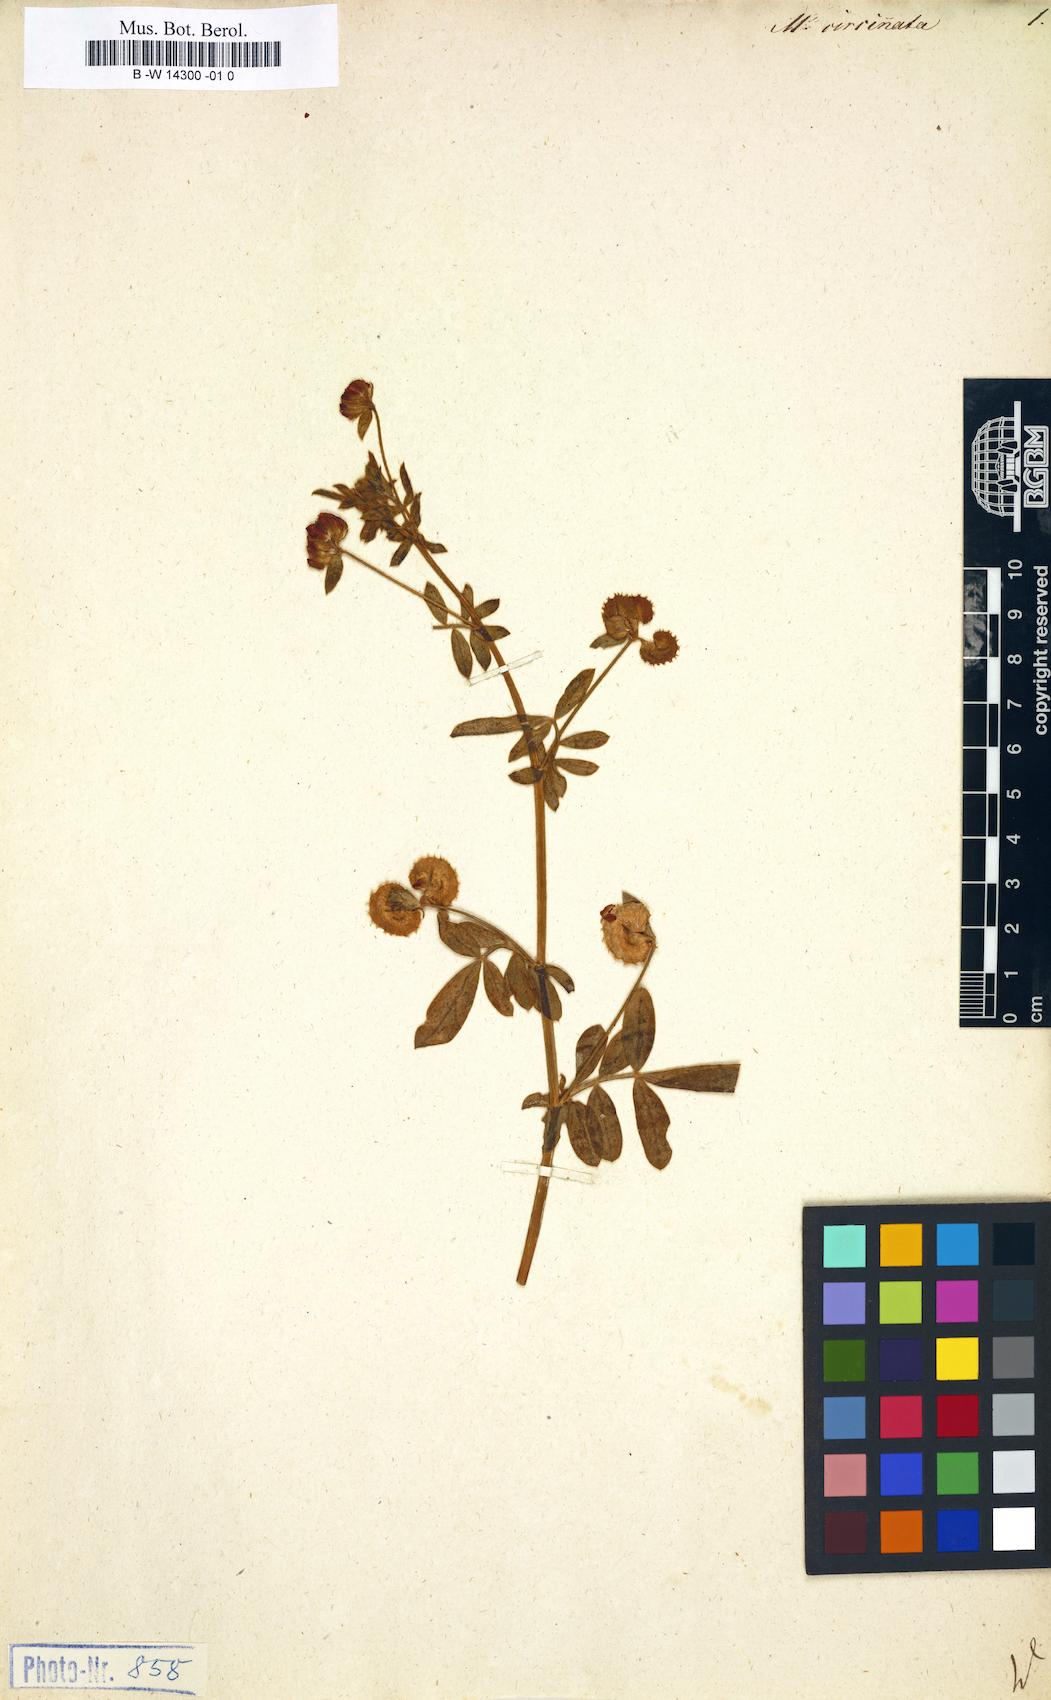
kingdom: Plantae
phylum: Tracheophyta
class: Magnoliopsida
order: Fabales
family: Fabaceae
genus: Anthyllis
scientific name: Anthyllis circinnata
